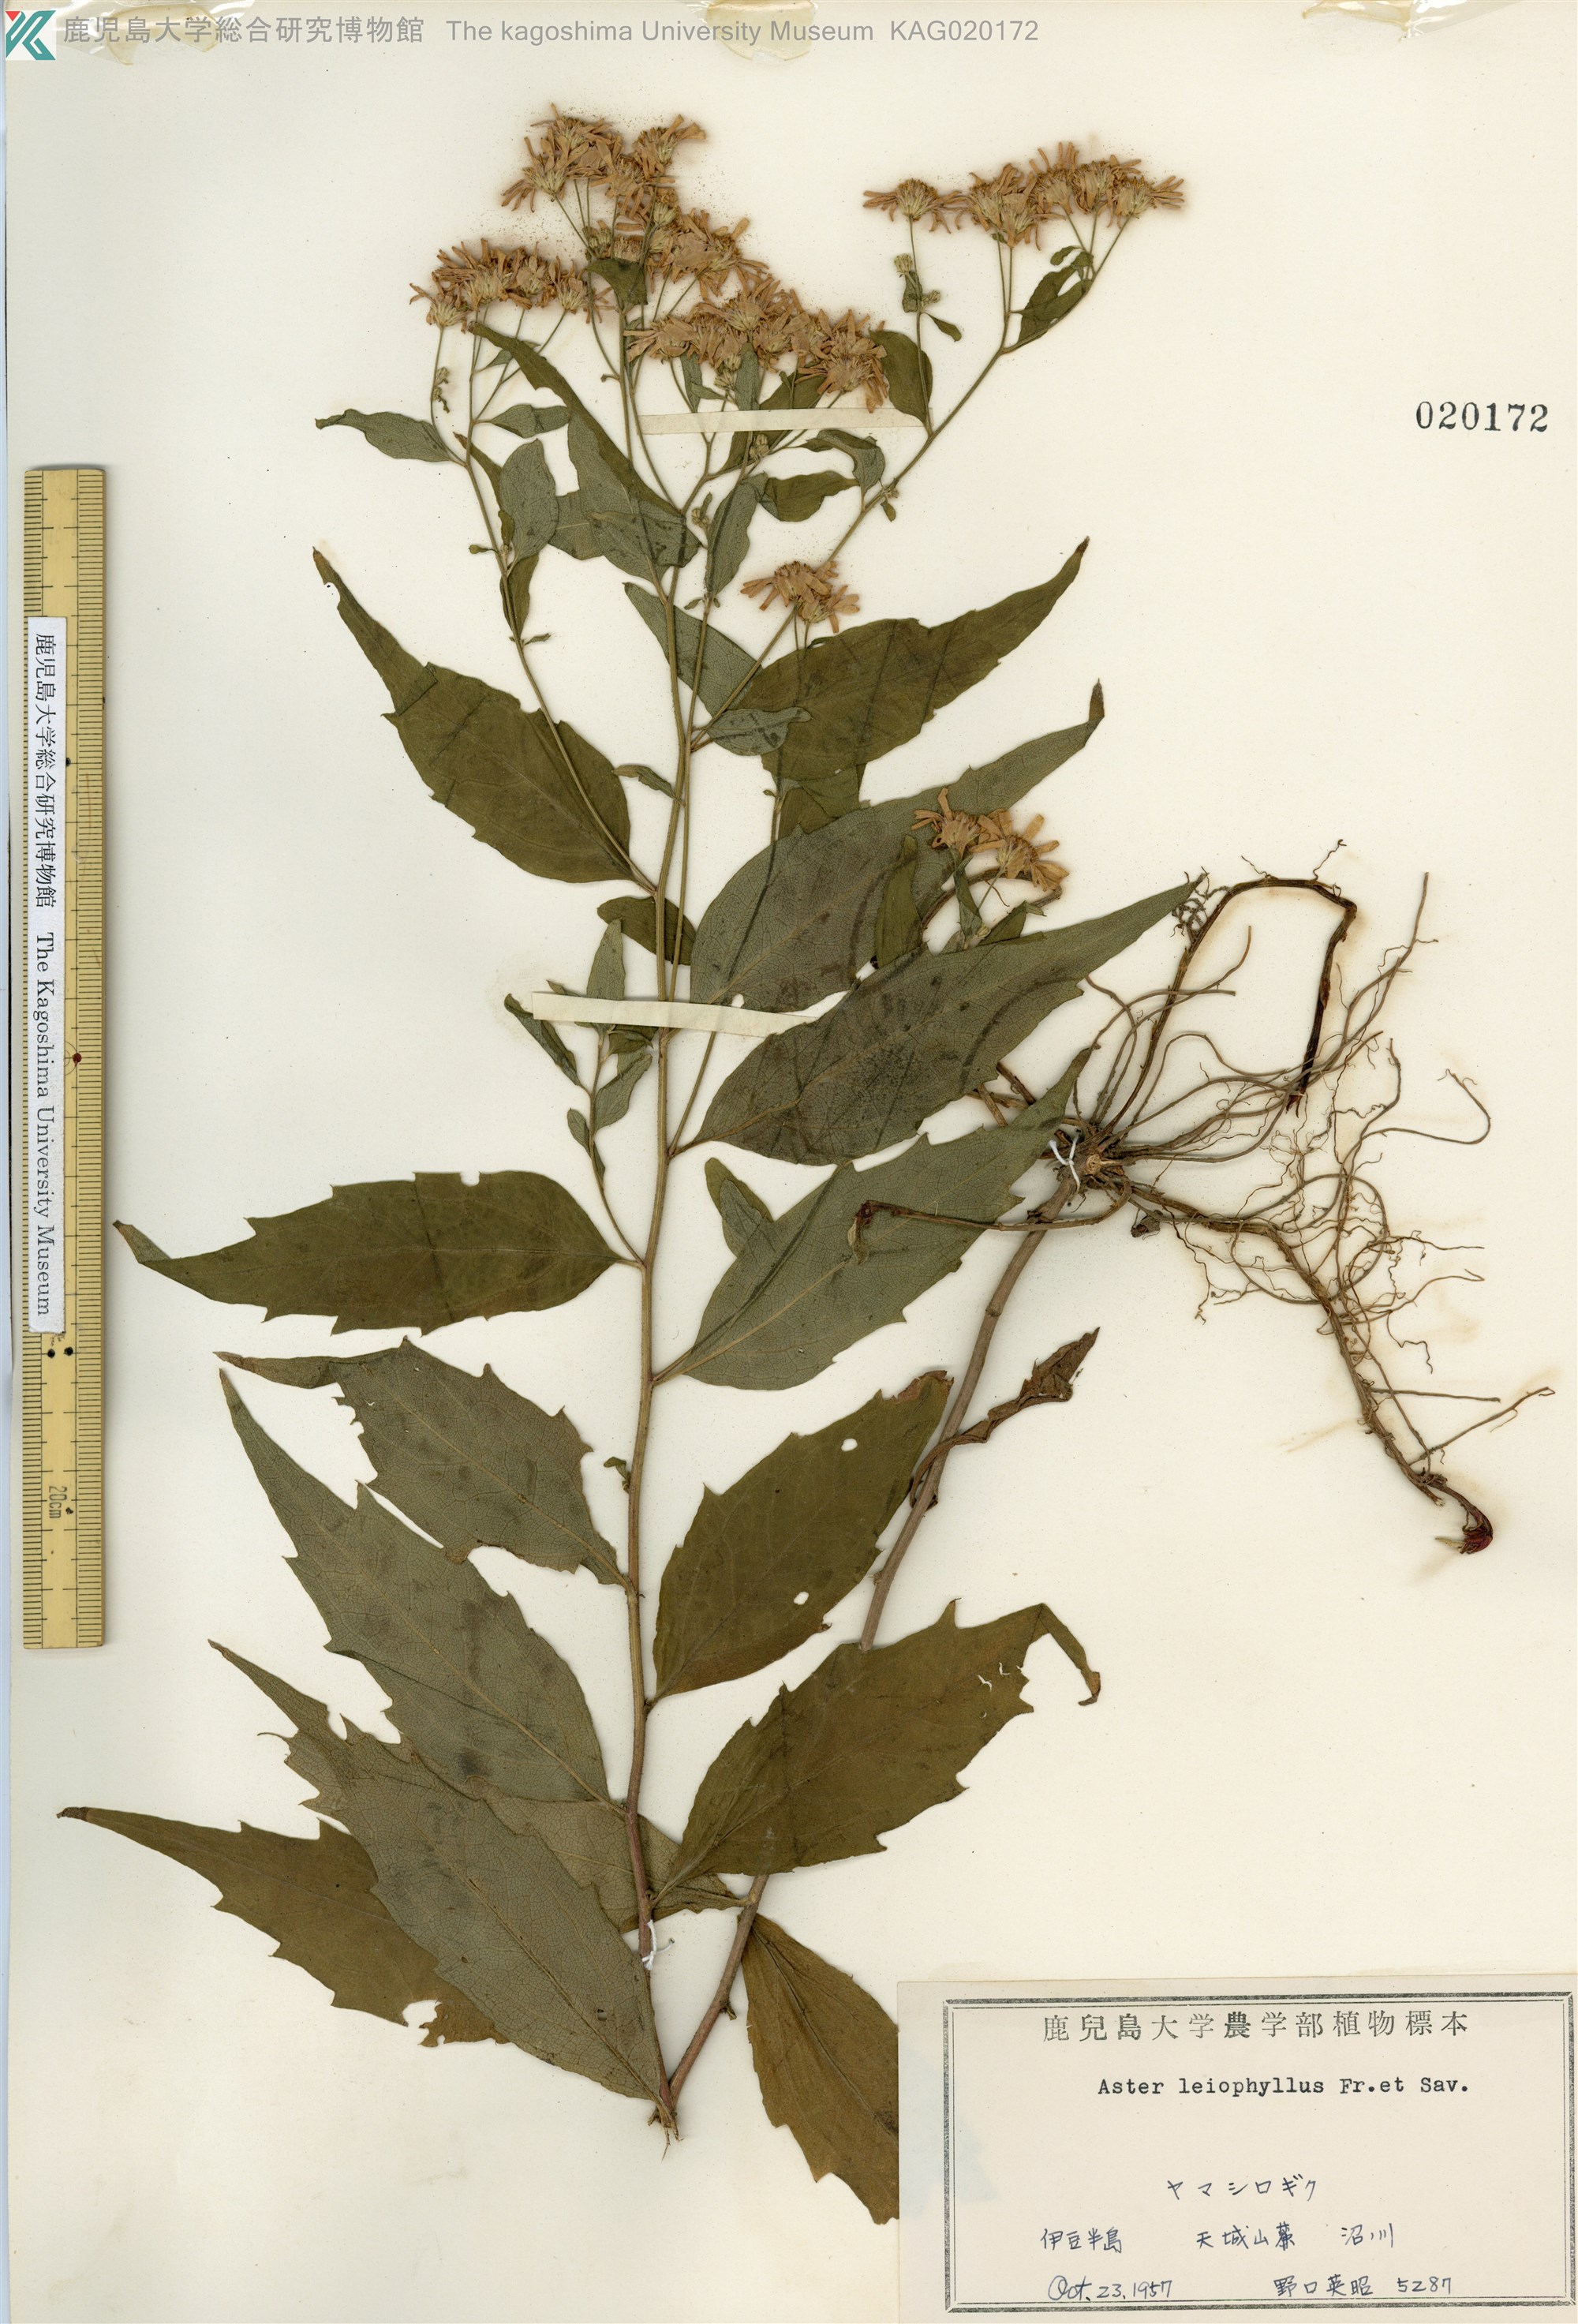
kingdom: Plantae
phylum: Tracheophyta
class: Magnoliopsida
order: Asterales
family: Asteraceae
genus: Aster
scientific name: Aster ageratoides
